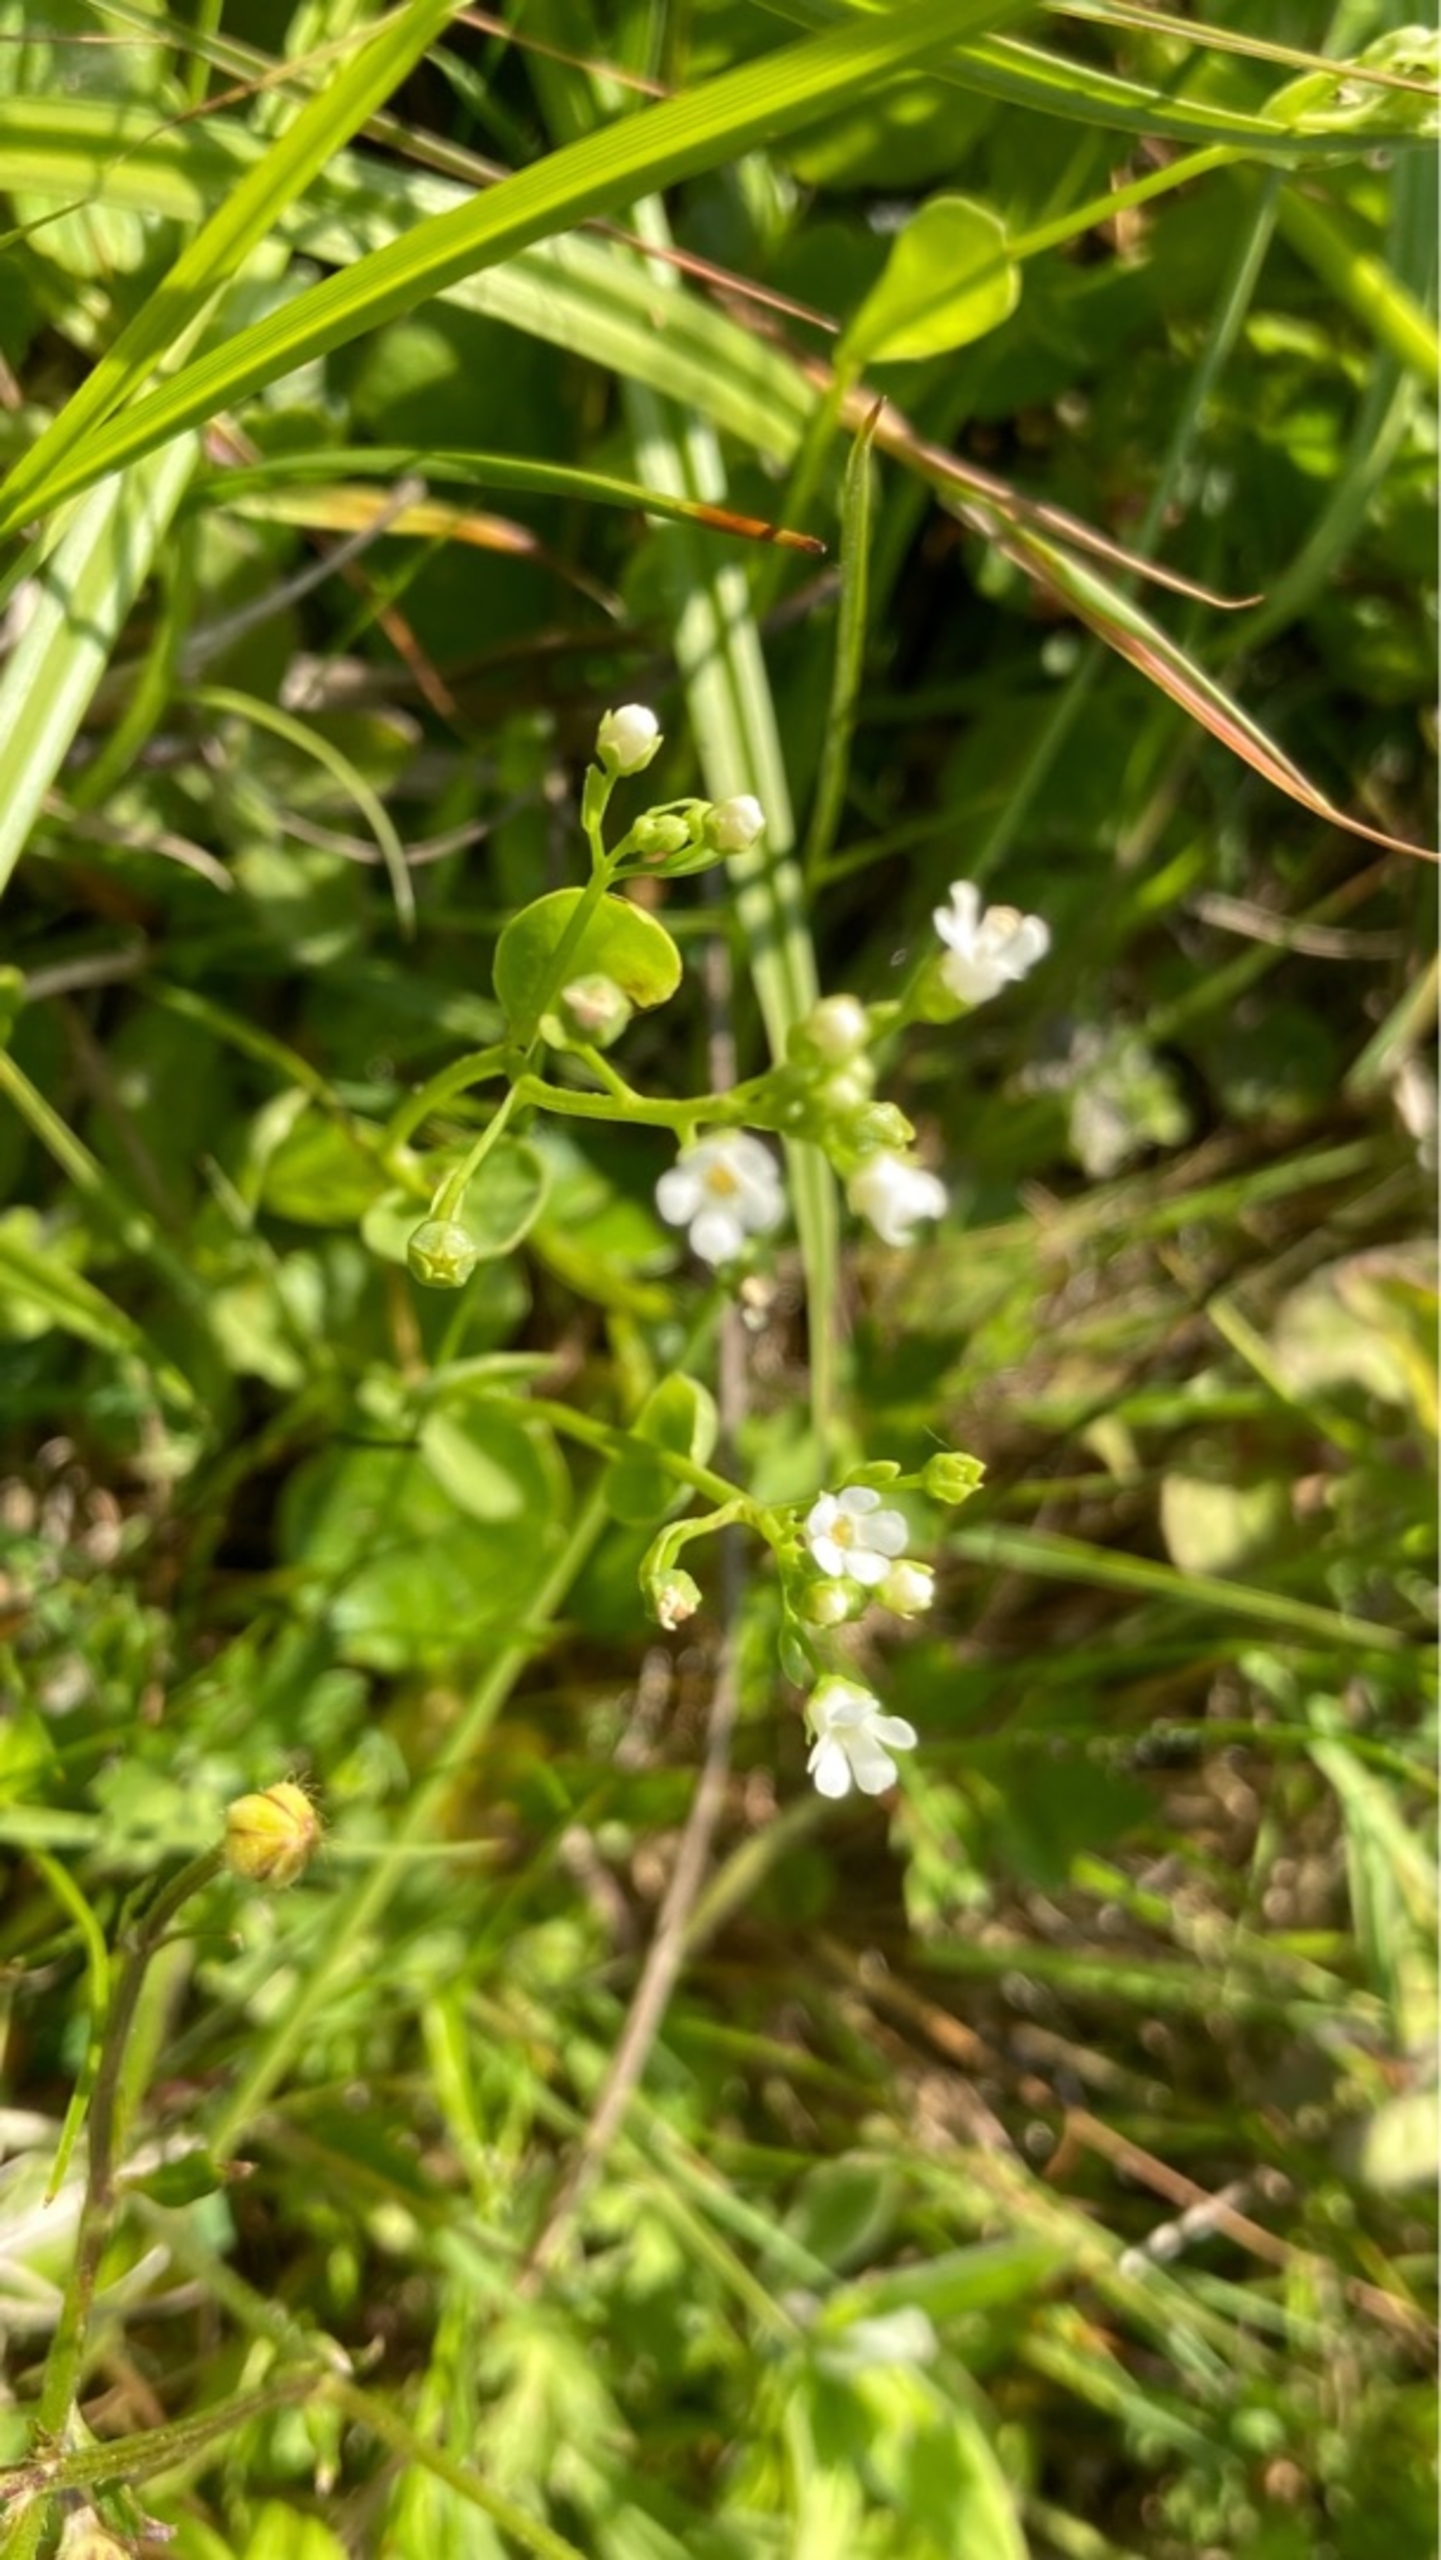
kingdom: Plantae
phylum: Tracheophyta
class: Magnoliopsida
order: Ericales
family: Primulaceae
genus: Samolus
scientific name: Samolus valerandi
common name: Samel
